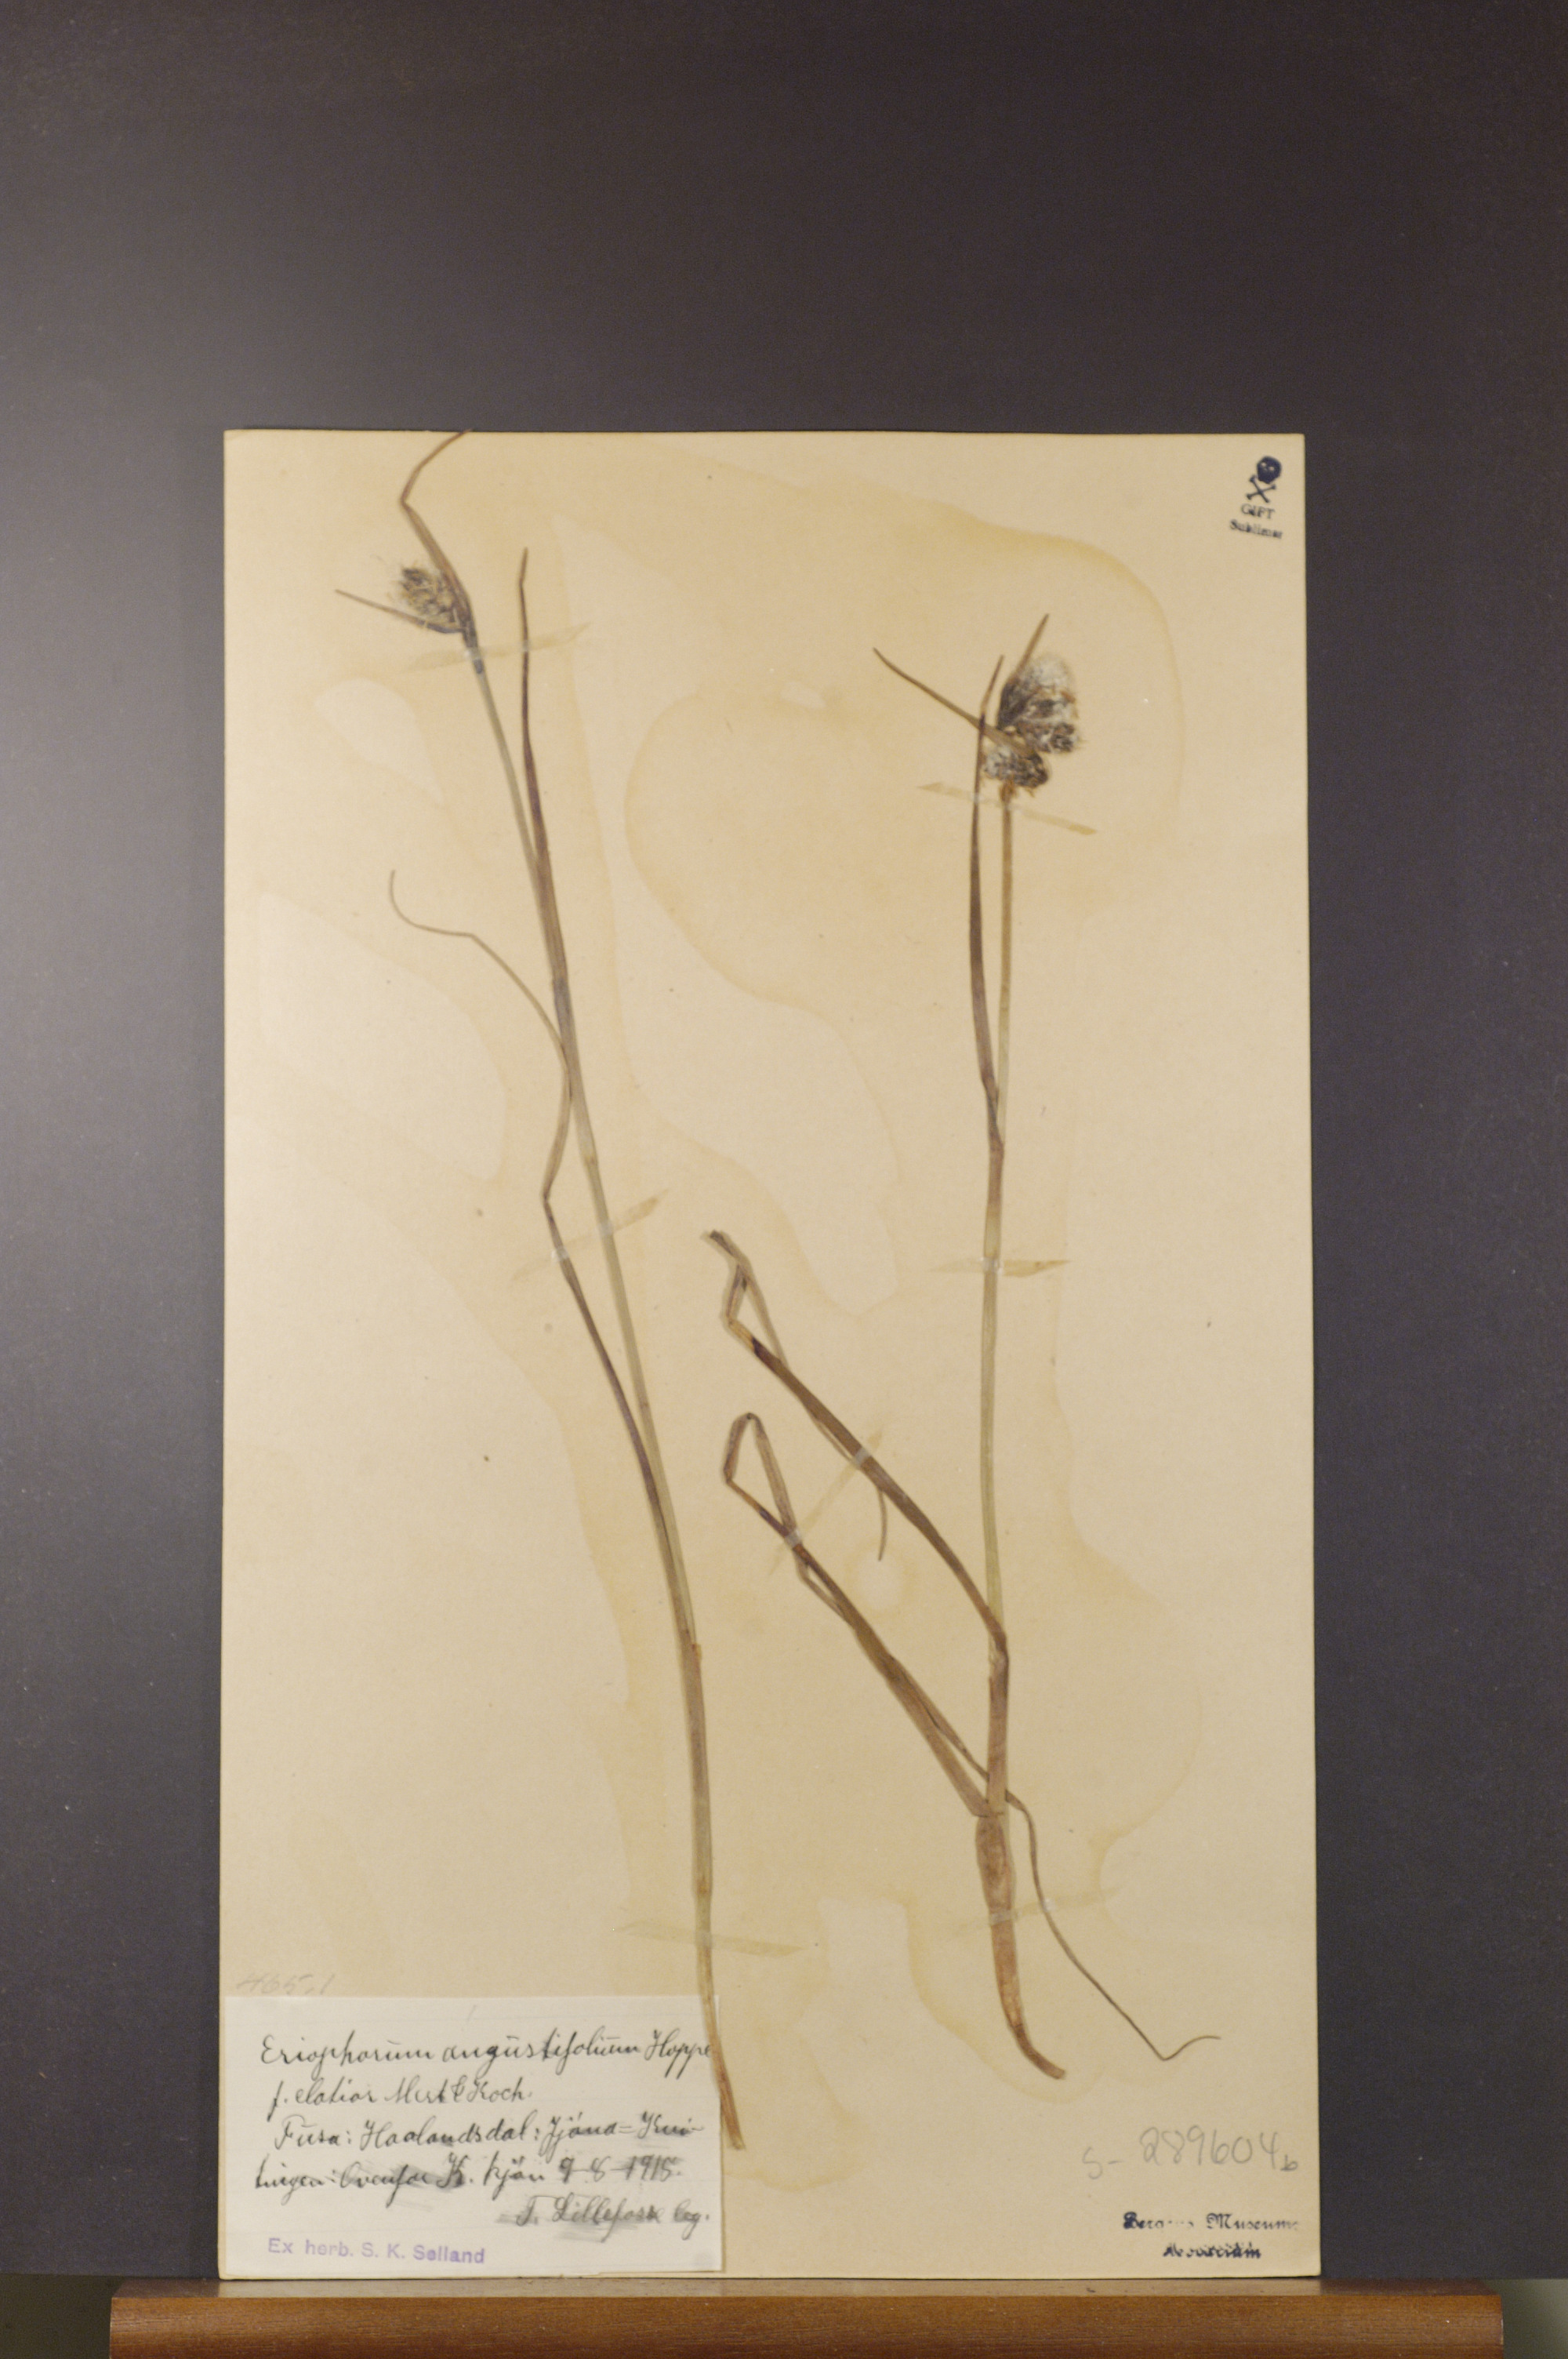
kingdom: Plantae
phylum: Tracheophyta
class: Liliopsida
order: Poales
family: Cyperaceae
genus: Eriophorum
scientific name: Eriophorum angustifolium
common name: Common cottongrass
